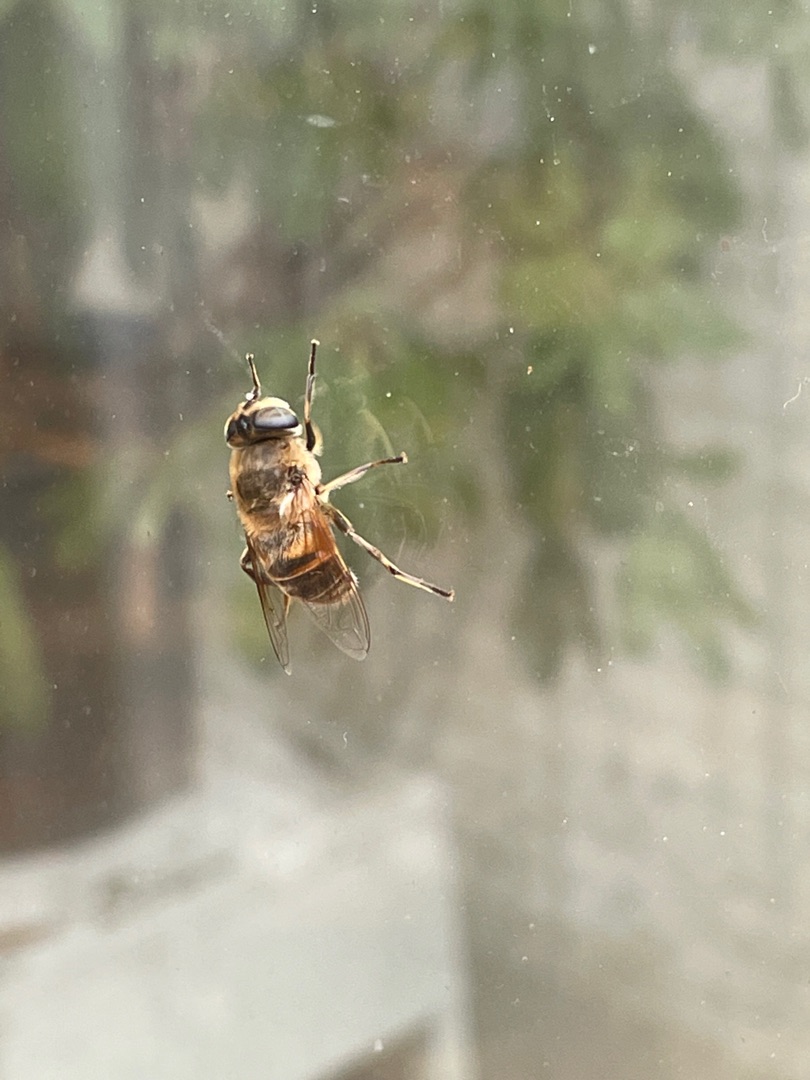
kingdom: Animalia
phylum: Arthropoda
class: Insecta
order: Diptera
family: Syrphidae
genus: Eristalis
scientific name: Eristalis tenax
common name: Droneflue
